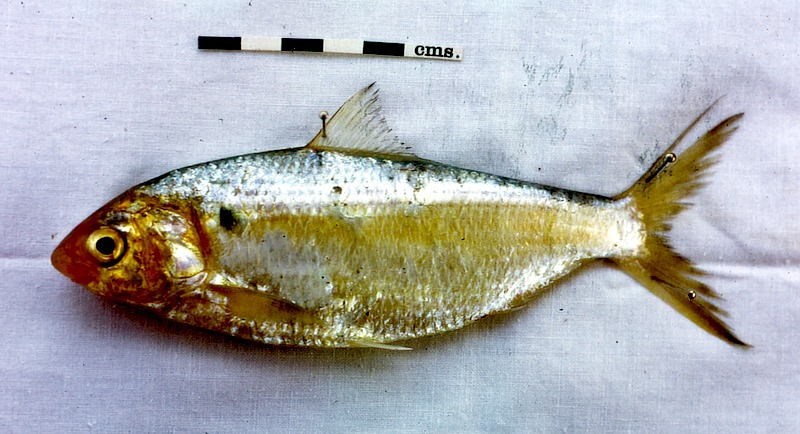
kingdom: Animalia
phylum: Chordata
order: Clupeiformes
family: Clupeidae
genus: Nematalosa
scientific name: Nematalosa nasus
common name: Bloch's gizzard shad
